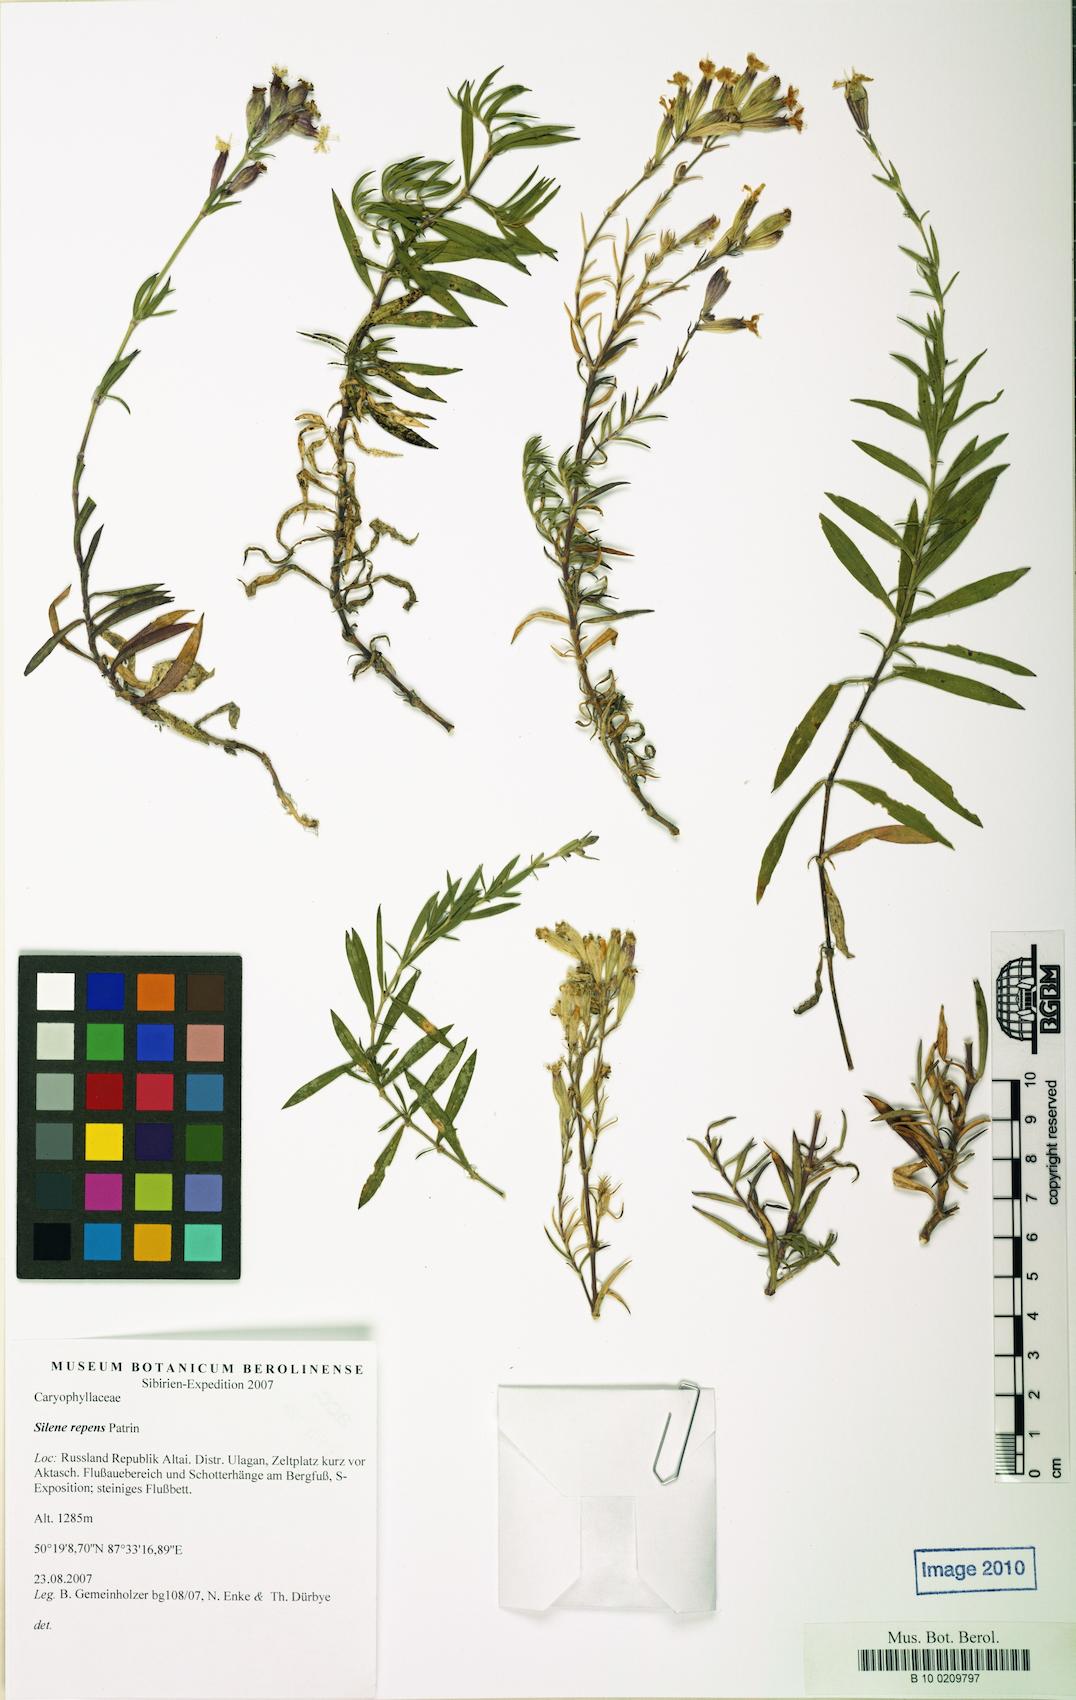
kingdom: Plantae
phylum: Tracheophyta
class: Magnoliopsida
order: Caryophyllales
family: Caryophyllaceae
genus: Silene
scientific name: Silene repens
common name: Pink campion
